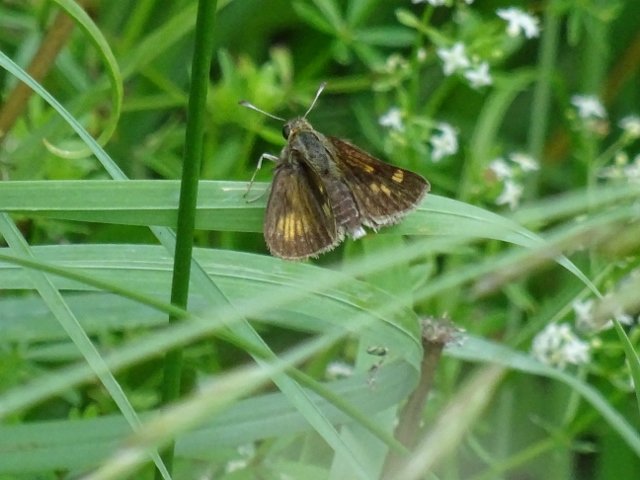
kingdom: Animalia
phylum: Arthropoda
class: Insecta
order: Lepidoptera
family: Hesperiidae
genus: Polites
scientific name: Polites
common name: Long Dash Skipper
